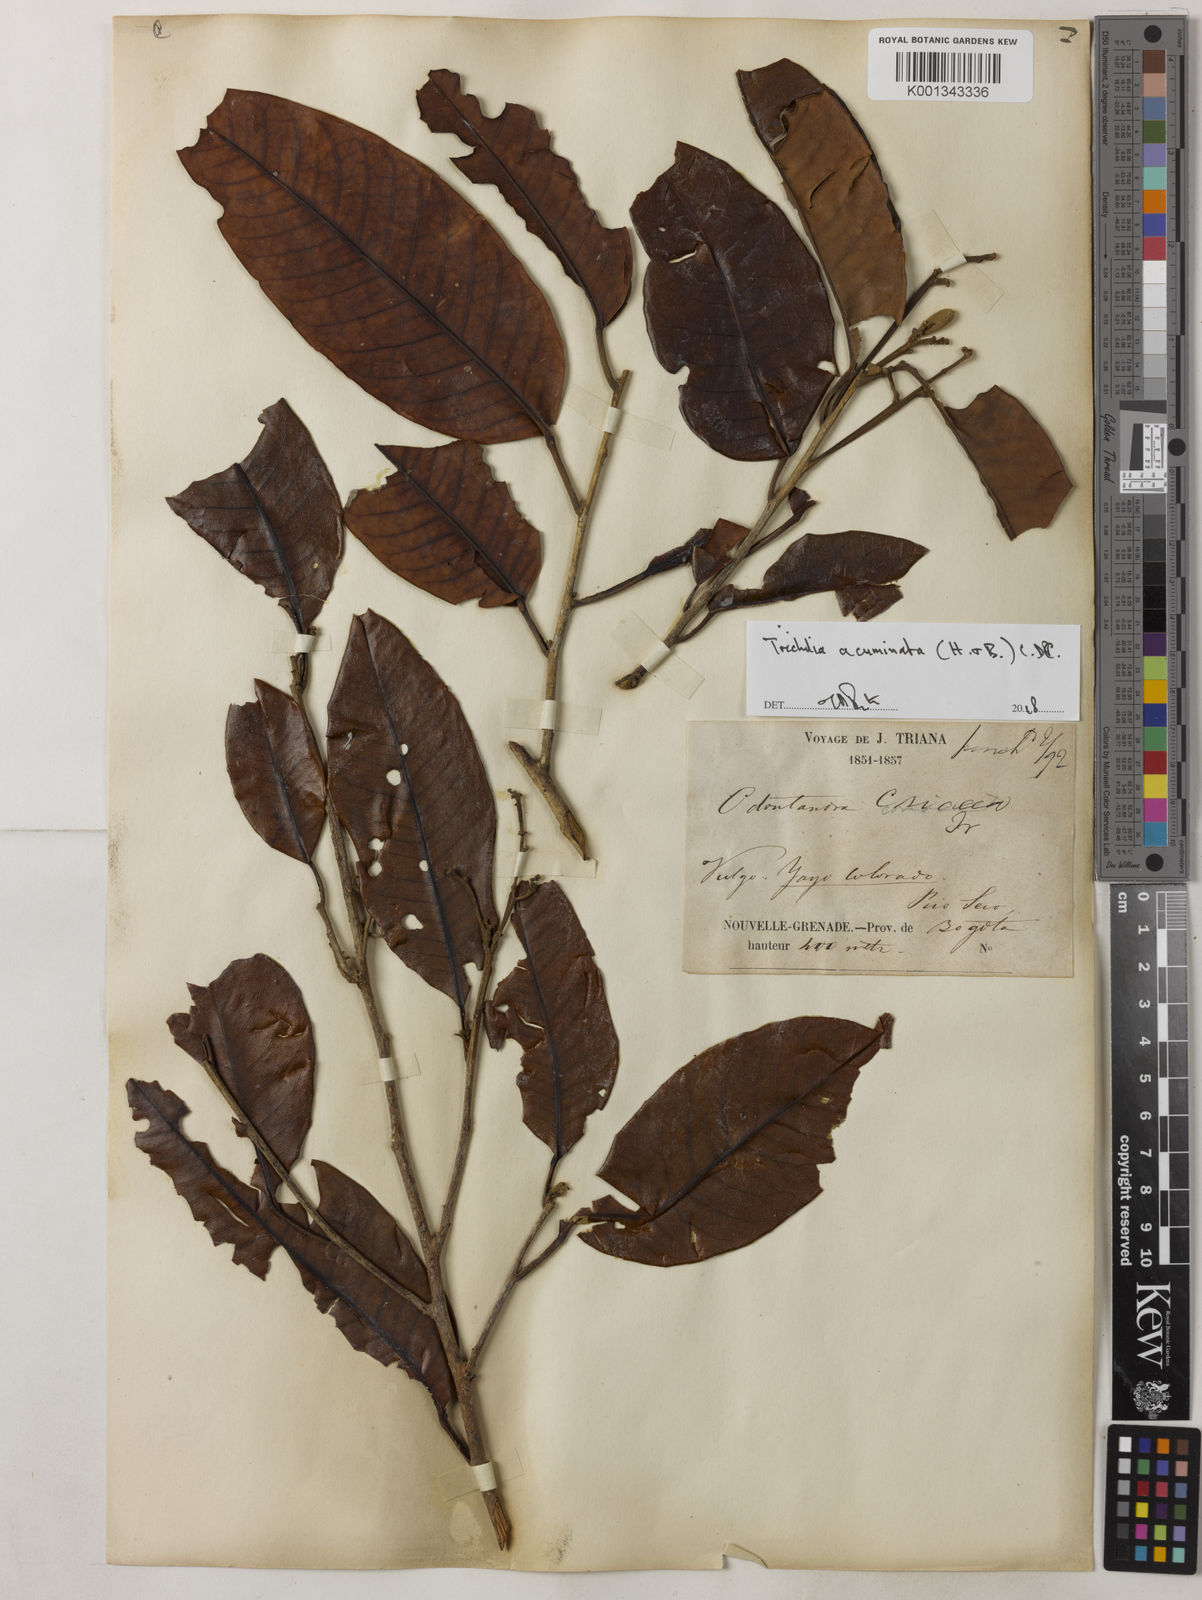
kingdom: Plantae
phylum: Tracheophyta
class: Magnoliopsida
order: Sapindales
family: Meliaceae
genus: Trichilia
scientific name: Trichilia acuminata
